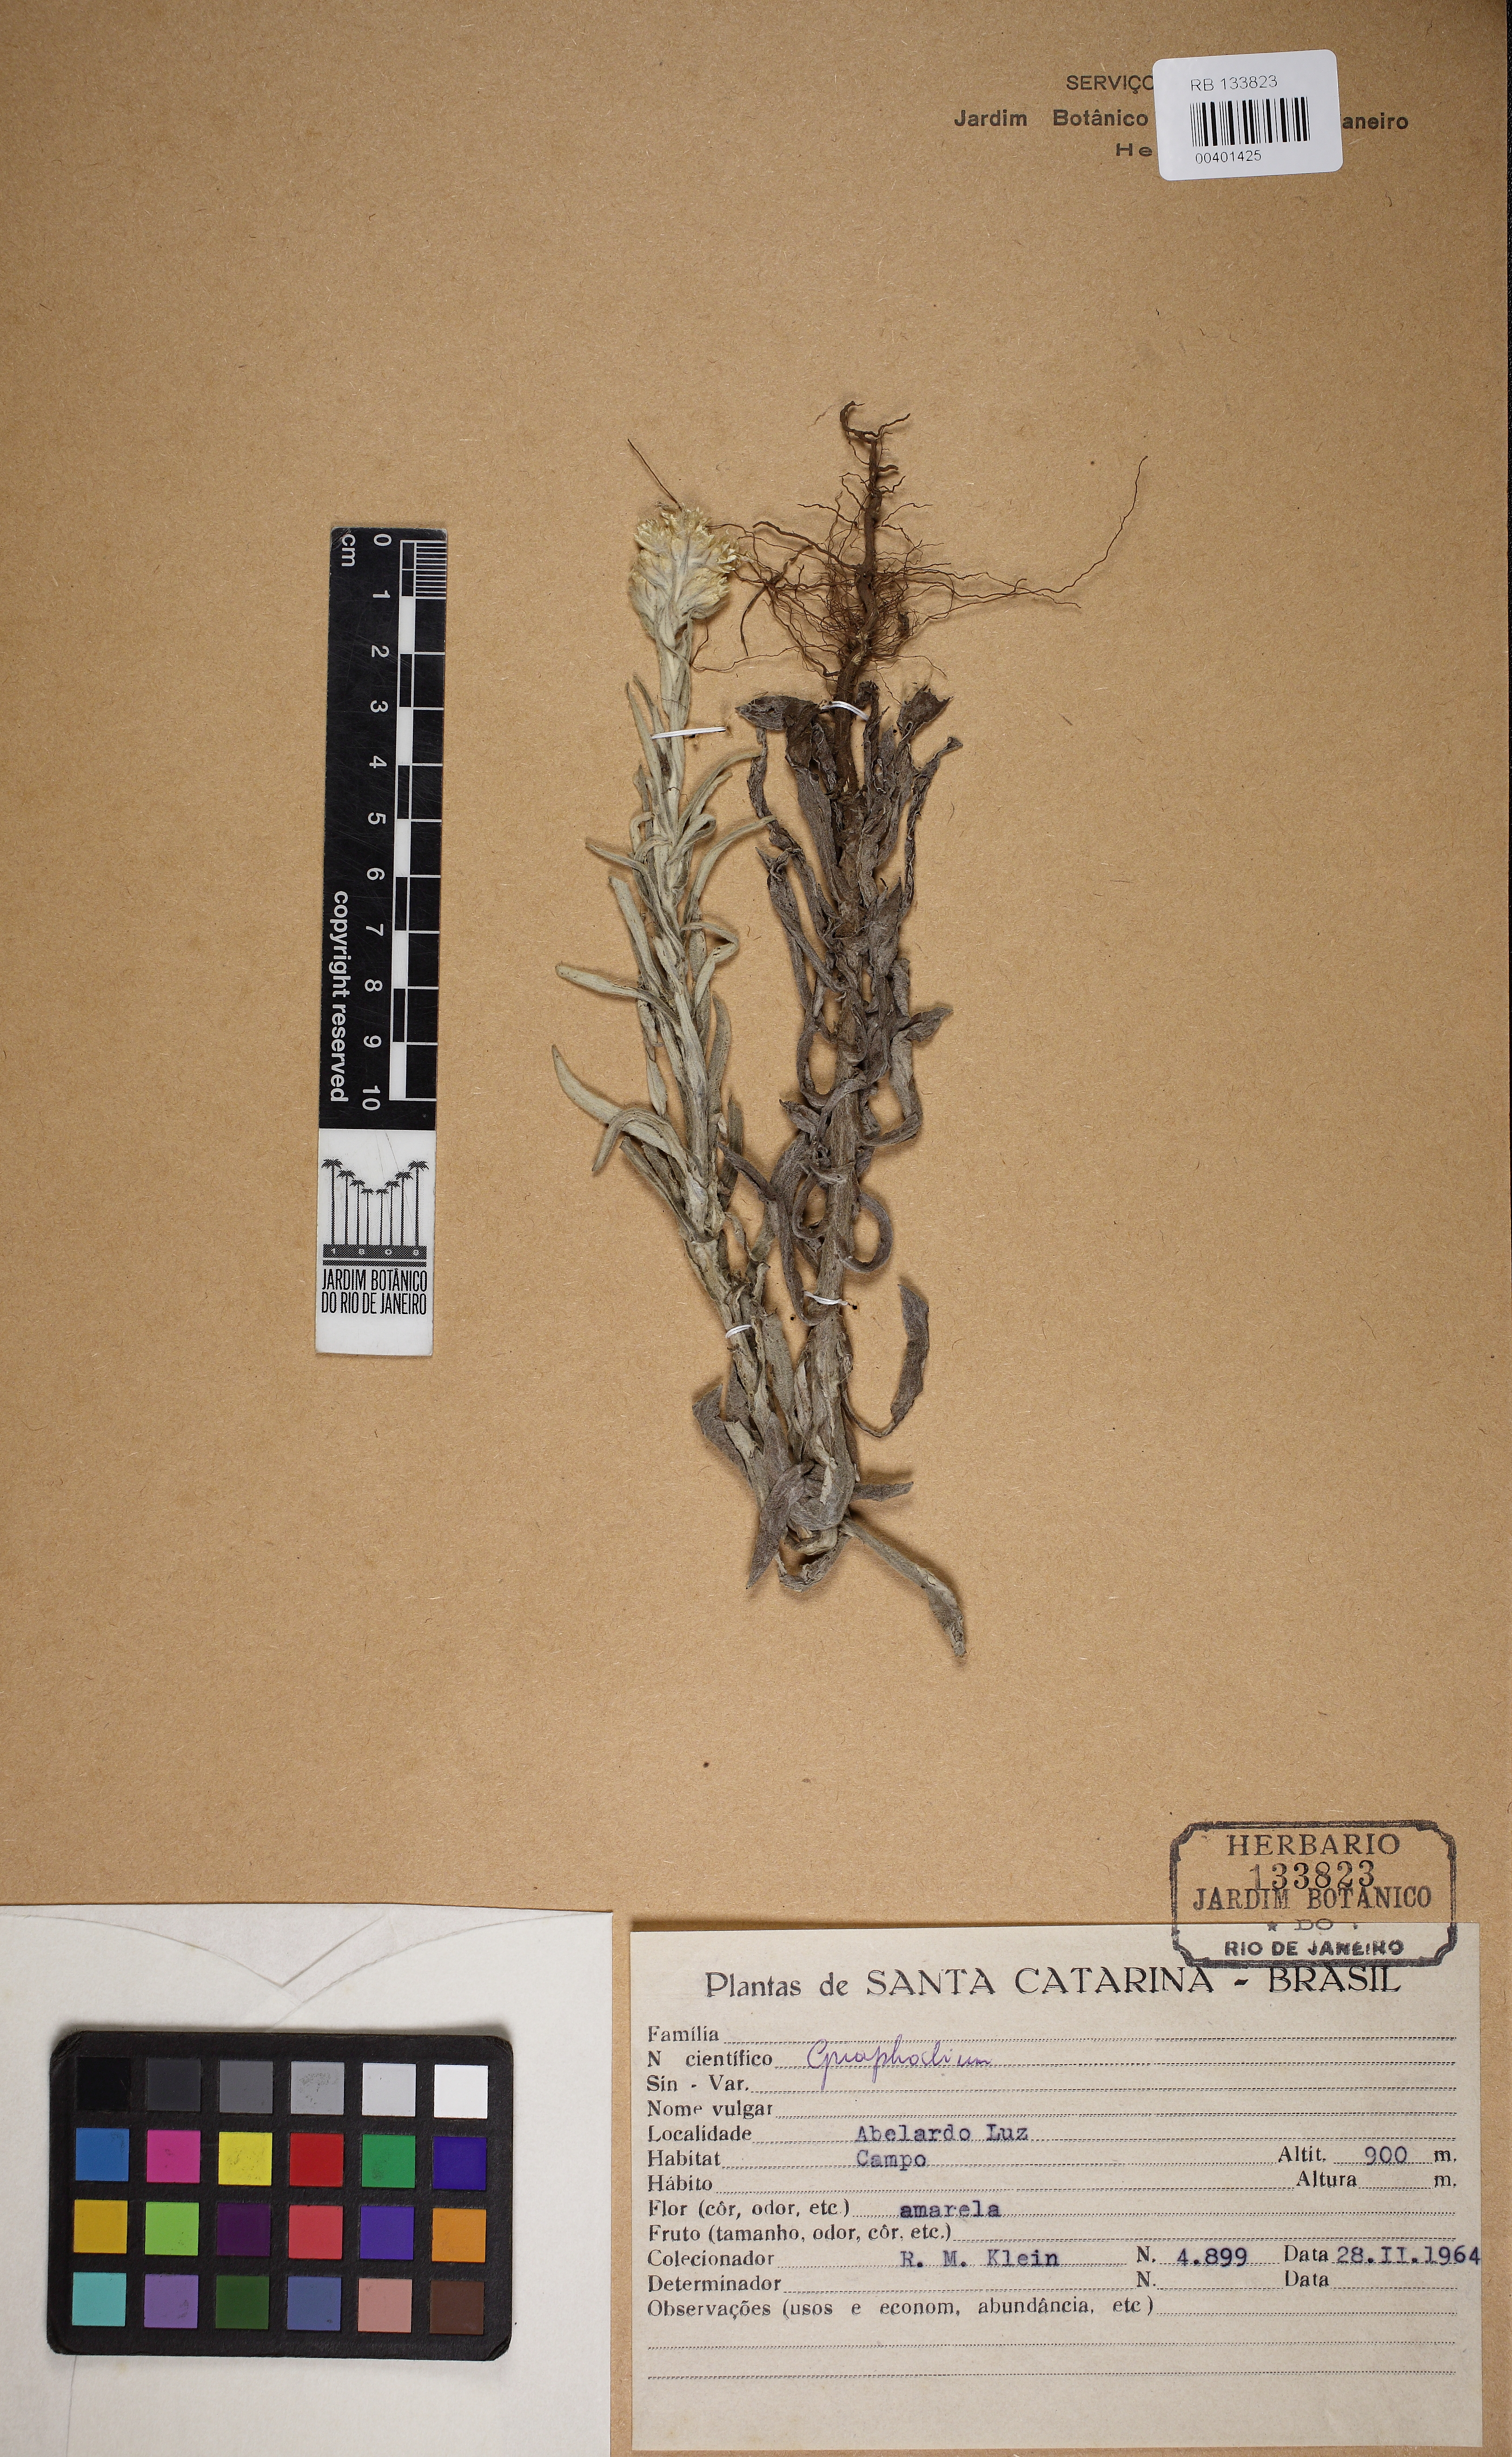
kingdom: Plantae
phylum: Tracheophyta
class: Magnoliopsida
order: Asterales
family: Asteraceae
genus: Pseudognaphalium
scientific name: Pseudognaphalium
